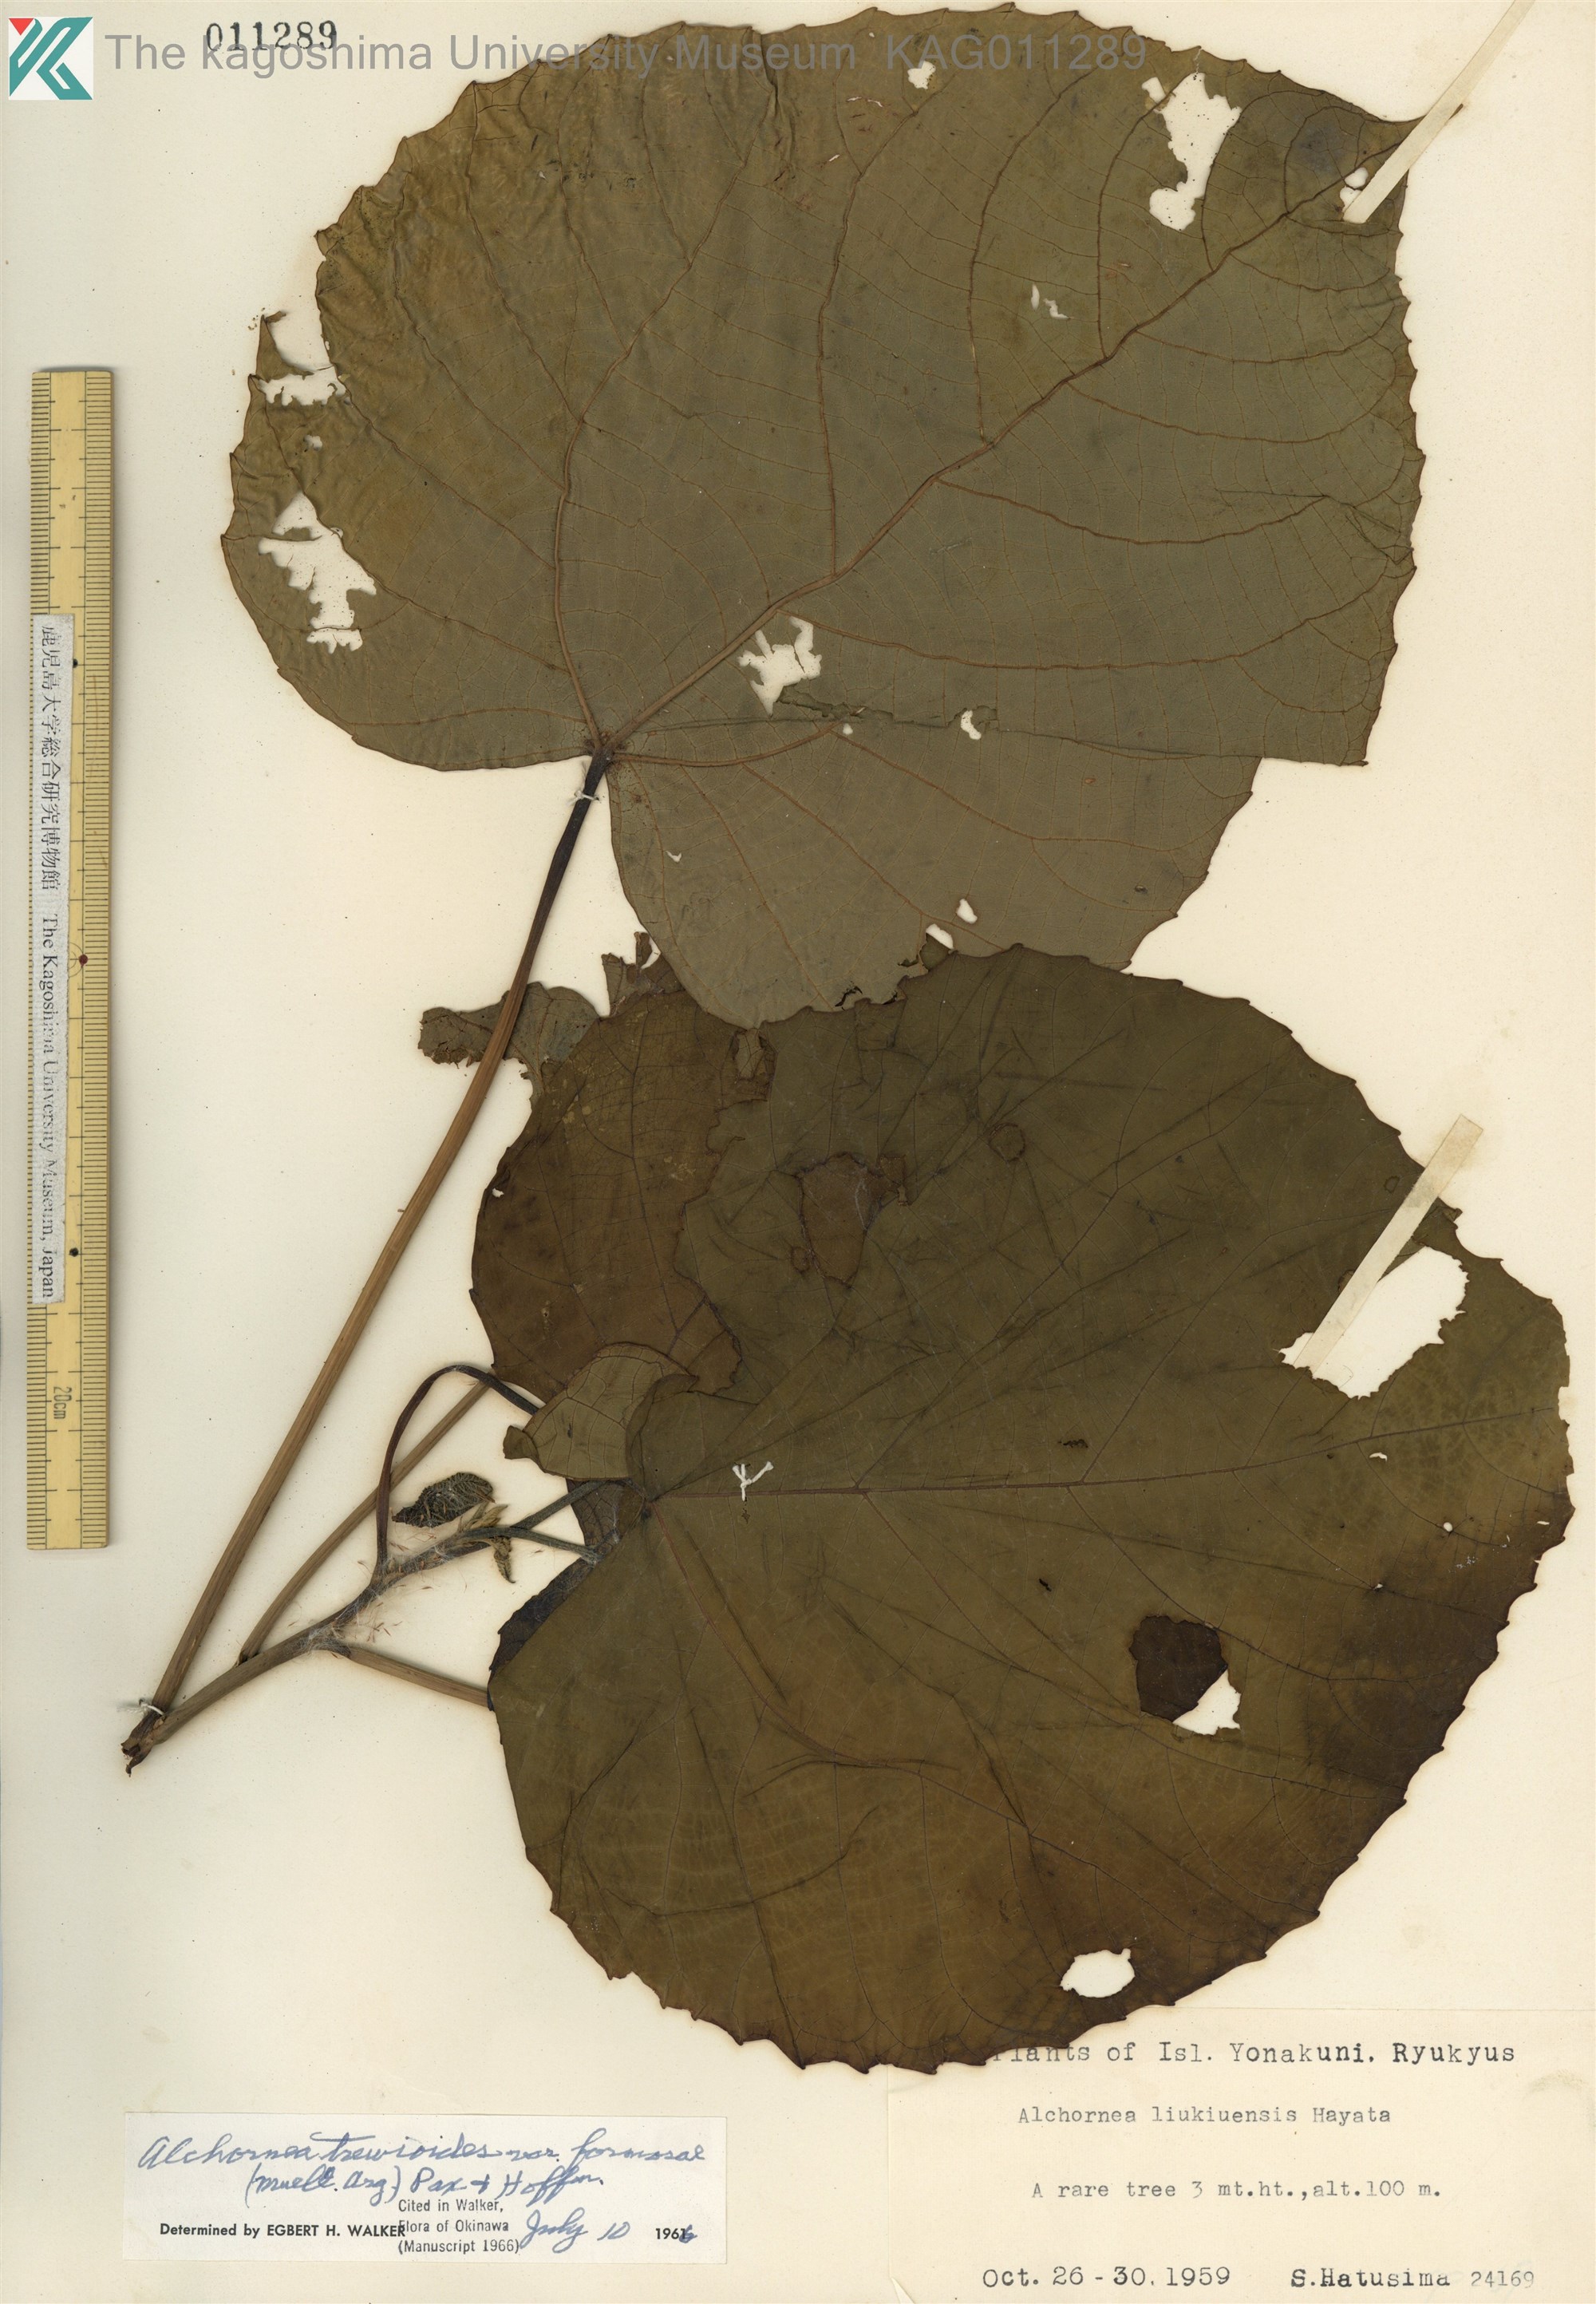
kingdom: Plantae
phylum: Tracheophyta
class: Magnoliopsida
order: Malpighiales
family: Euphorbiaceae
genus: Alchornea
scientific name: Alchornea liukiuensis
